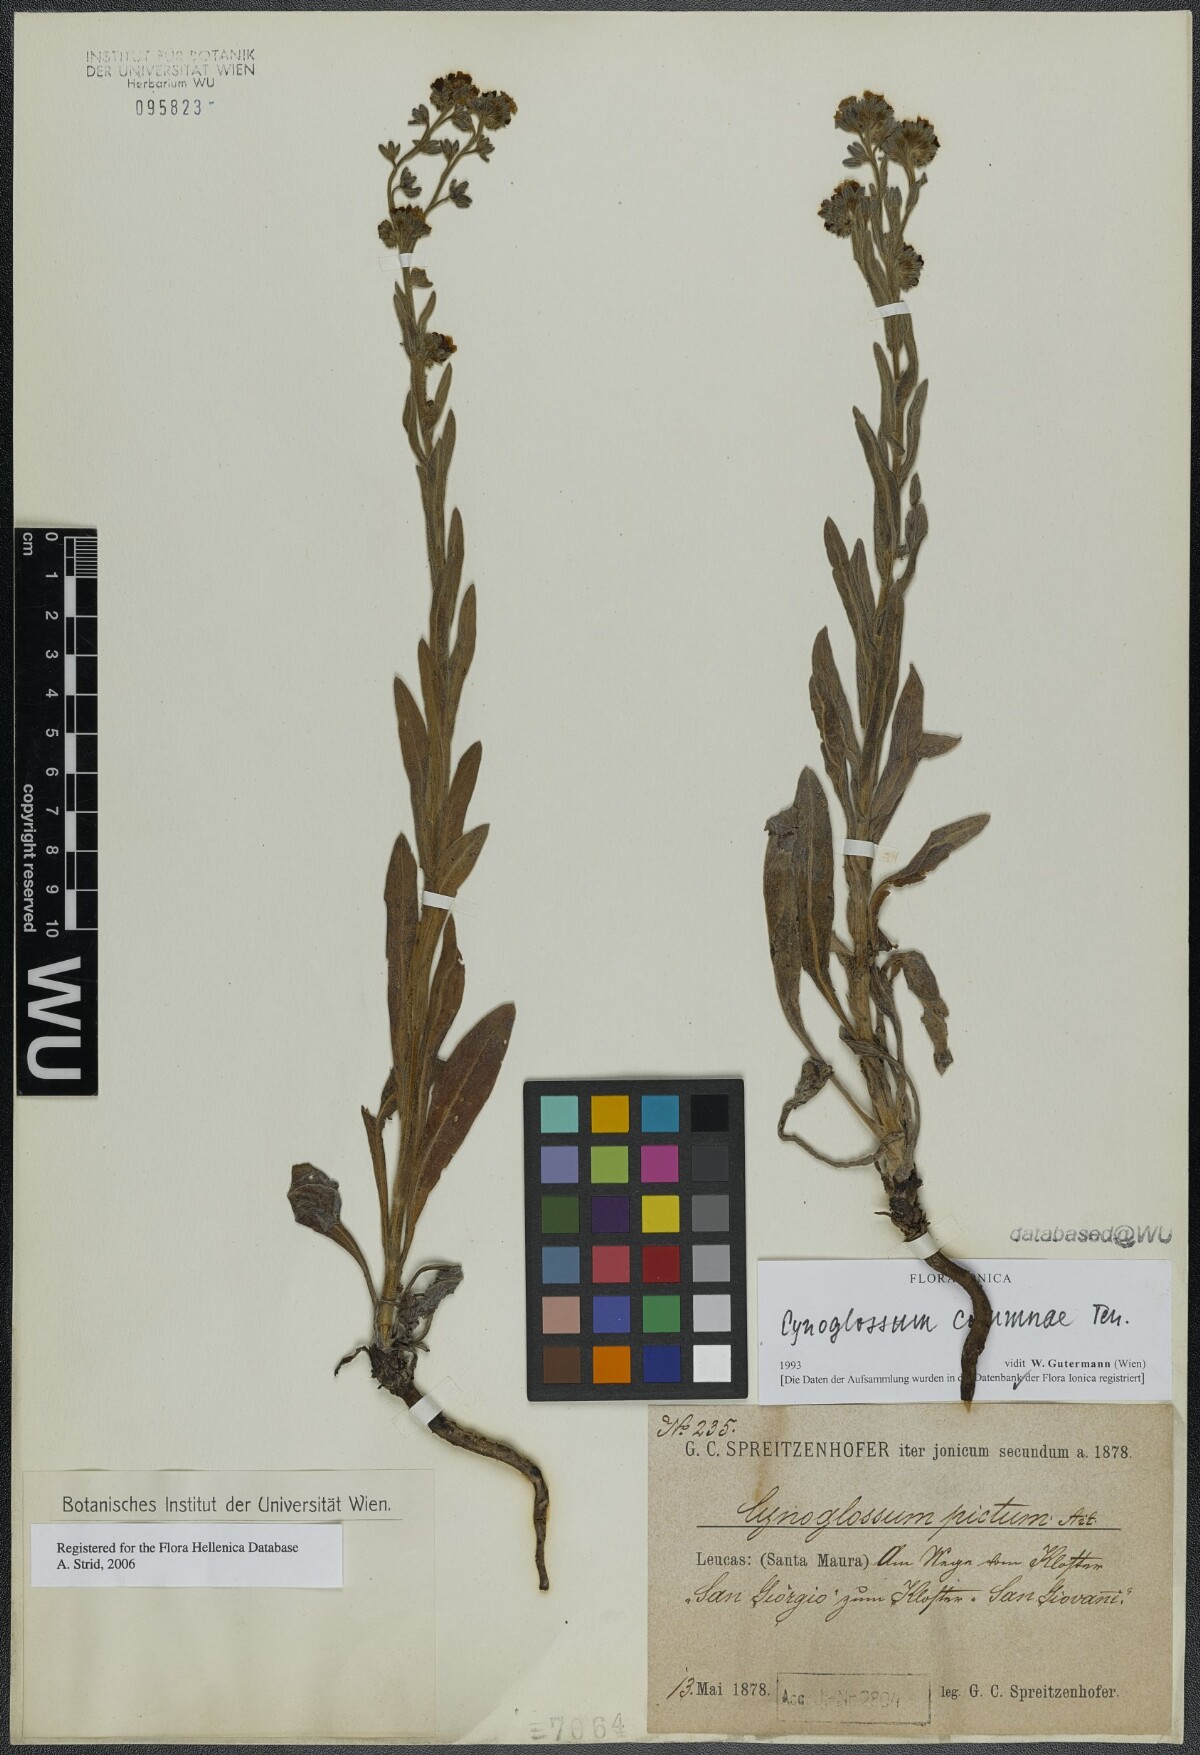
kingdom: Plantae
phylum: Tracheophyta
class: Magnoliopsida
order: Boraginales
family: Boraginaceae
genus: Rindera
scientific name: Rindera columnae
